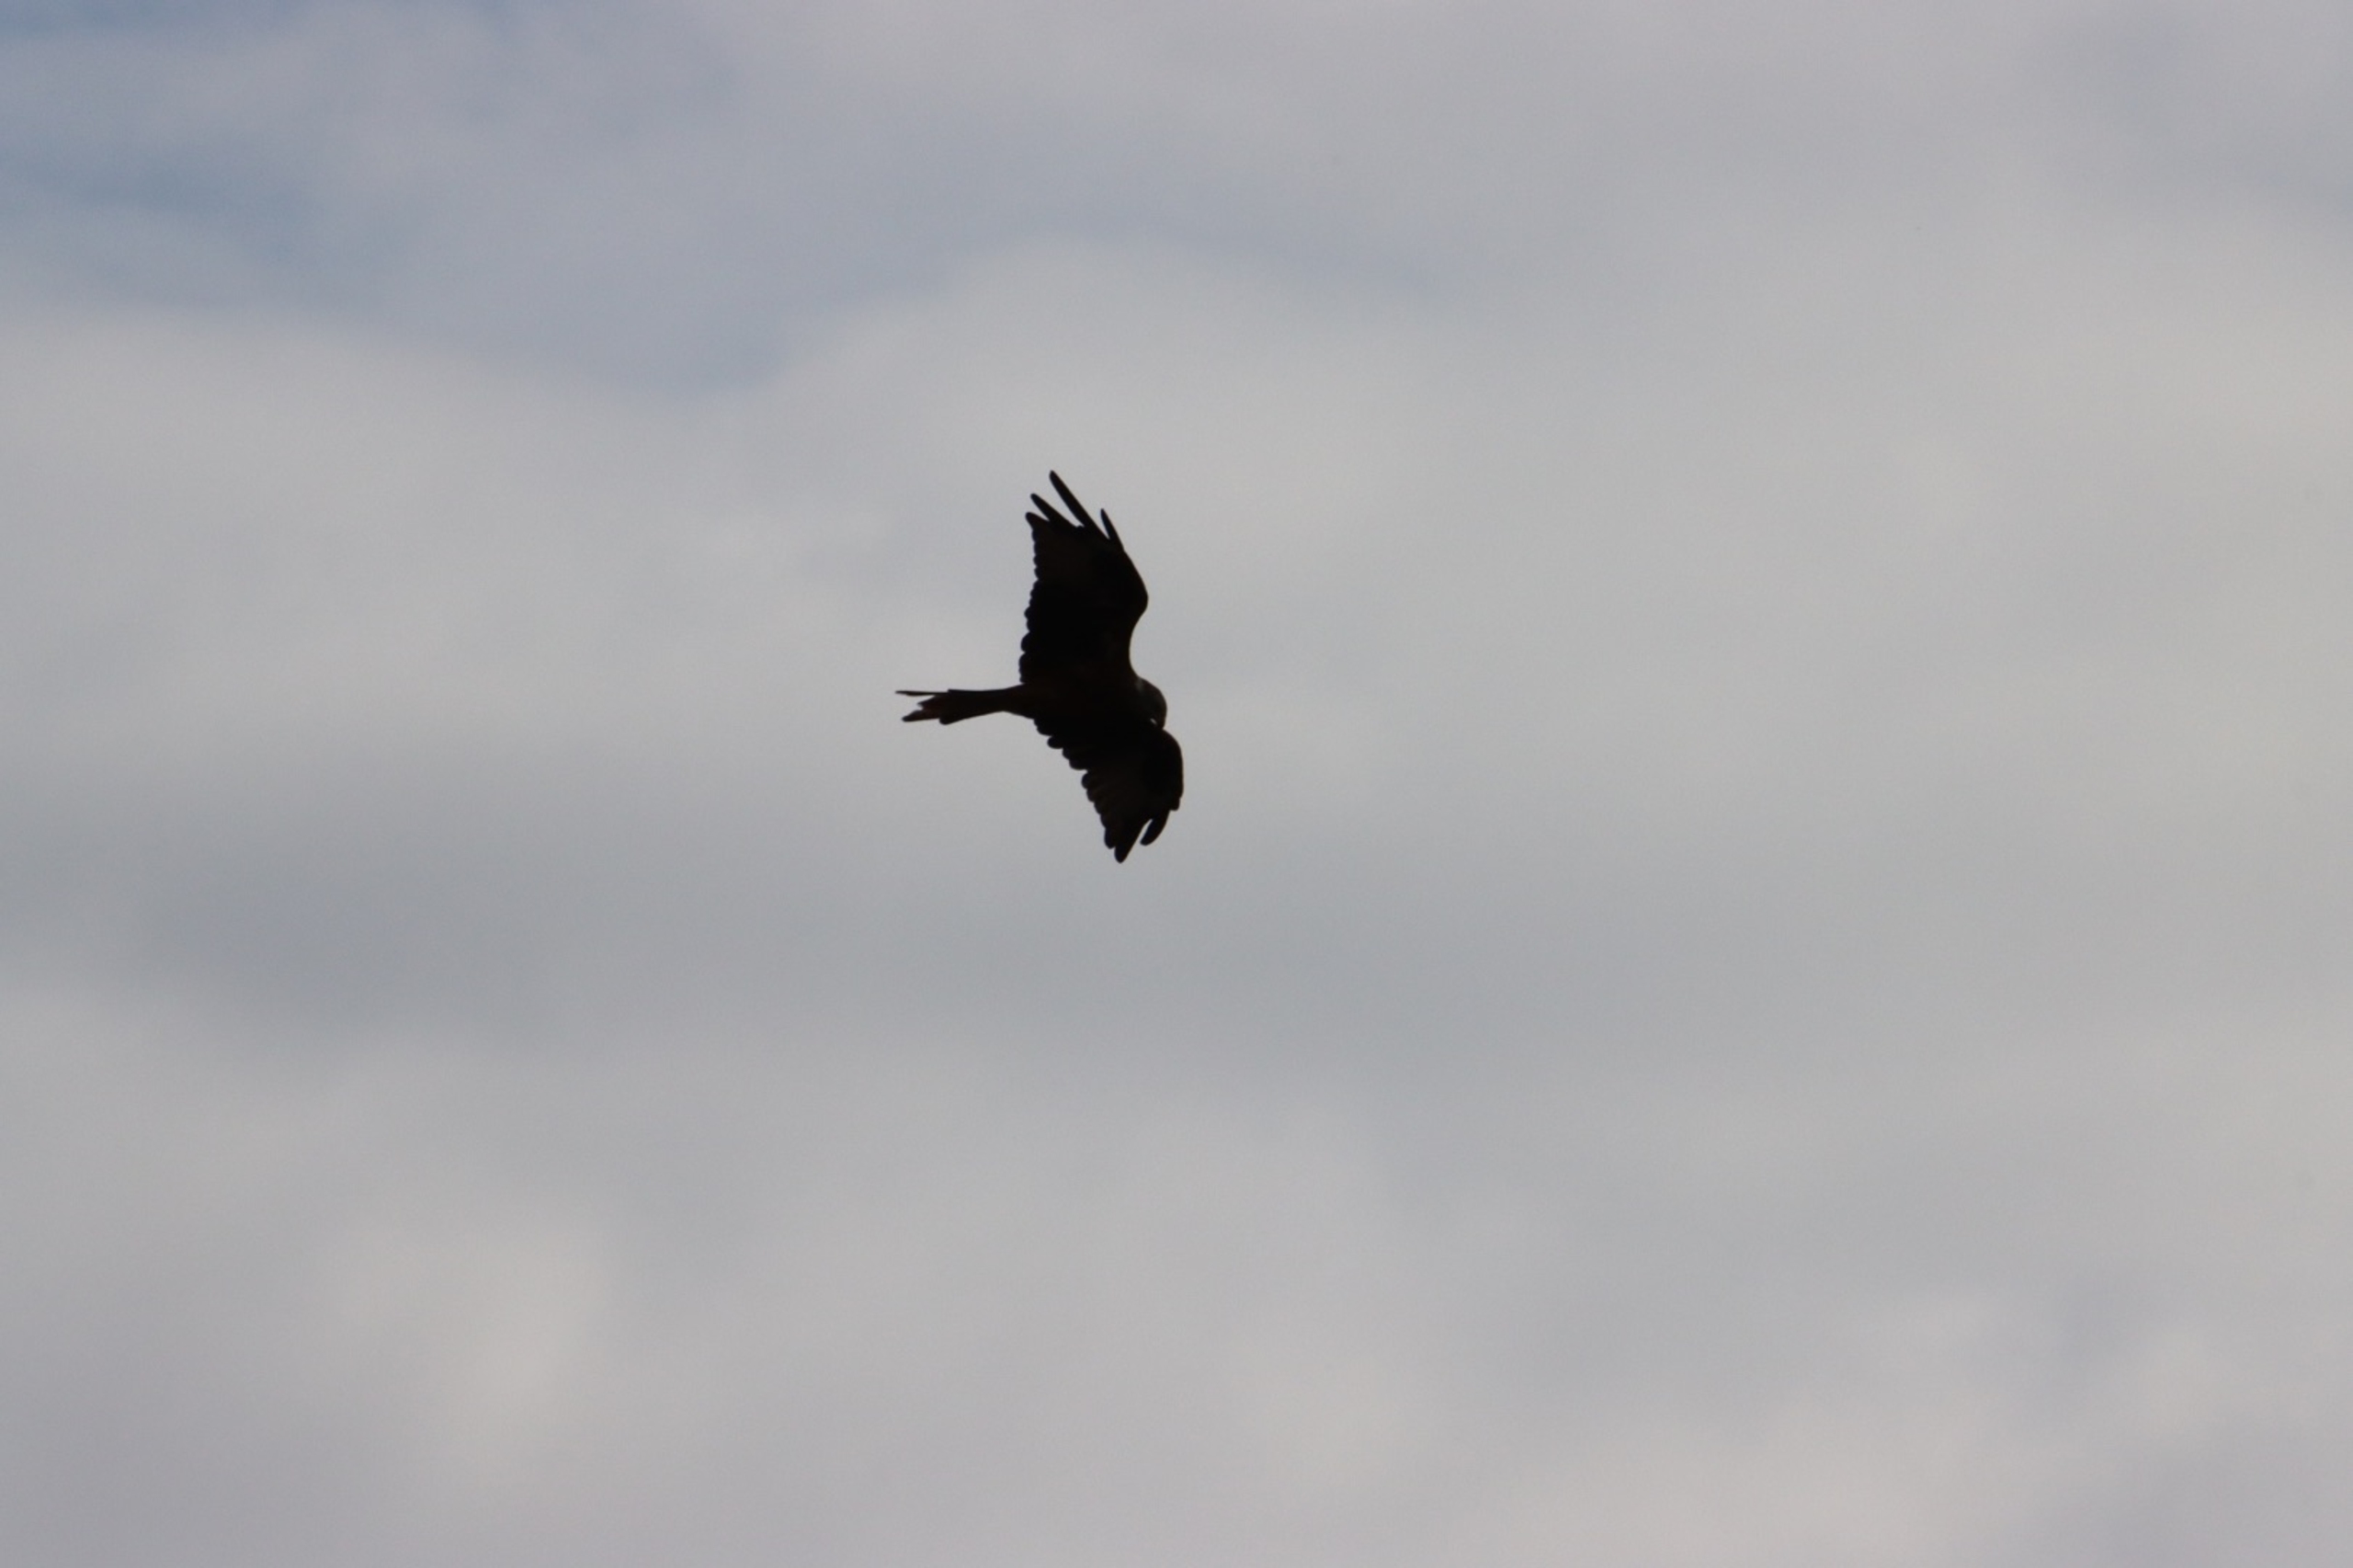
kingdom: Animalia
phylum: Chordata
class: Aves
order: Accipitriformes
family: Accipitridae
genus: Milvus
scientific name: Milvus milvus
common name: Rød glente
